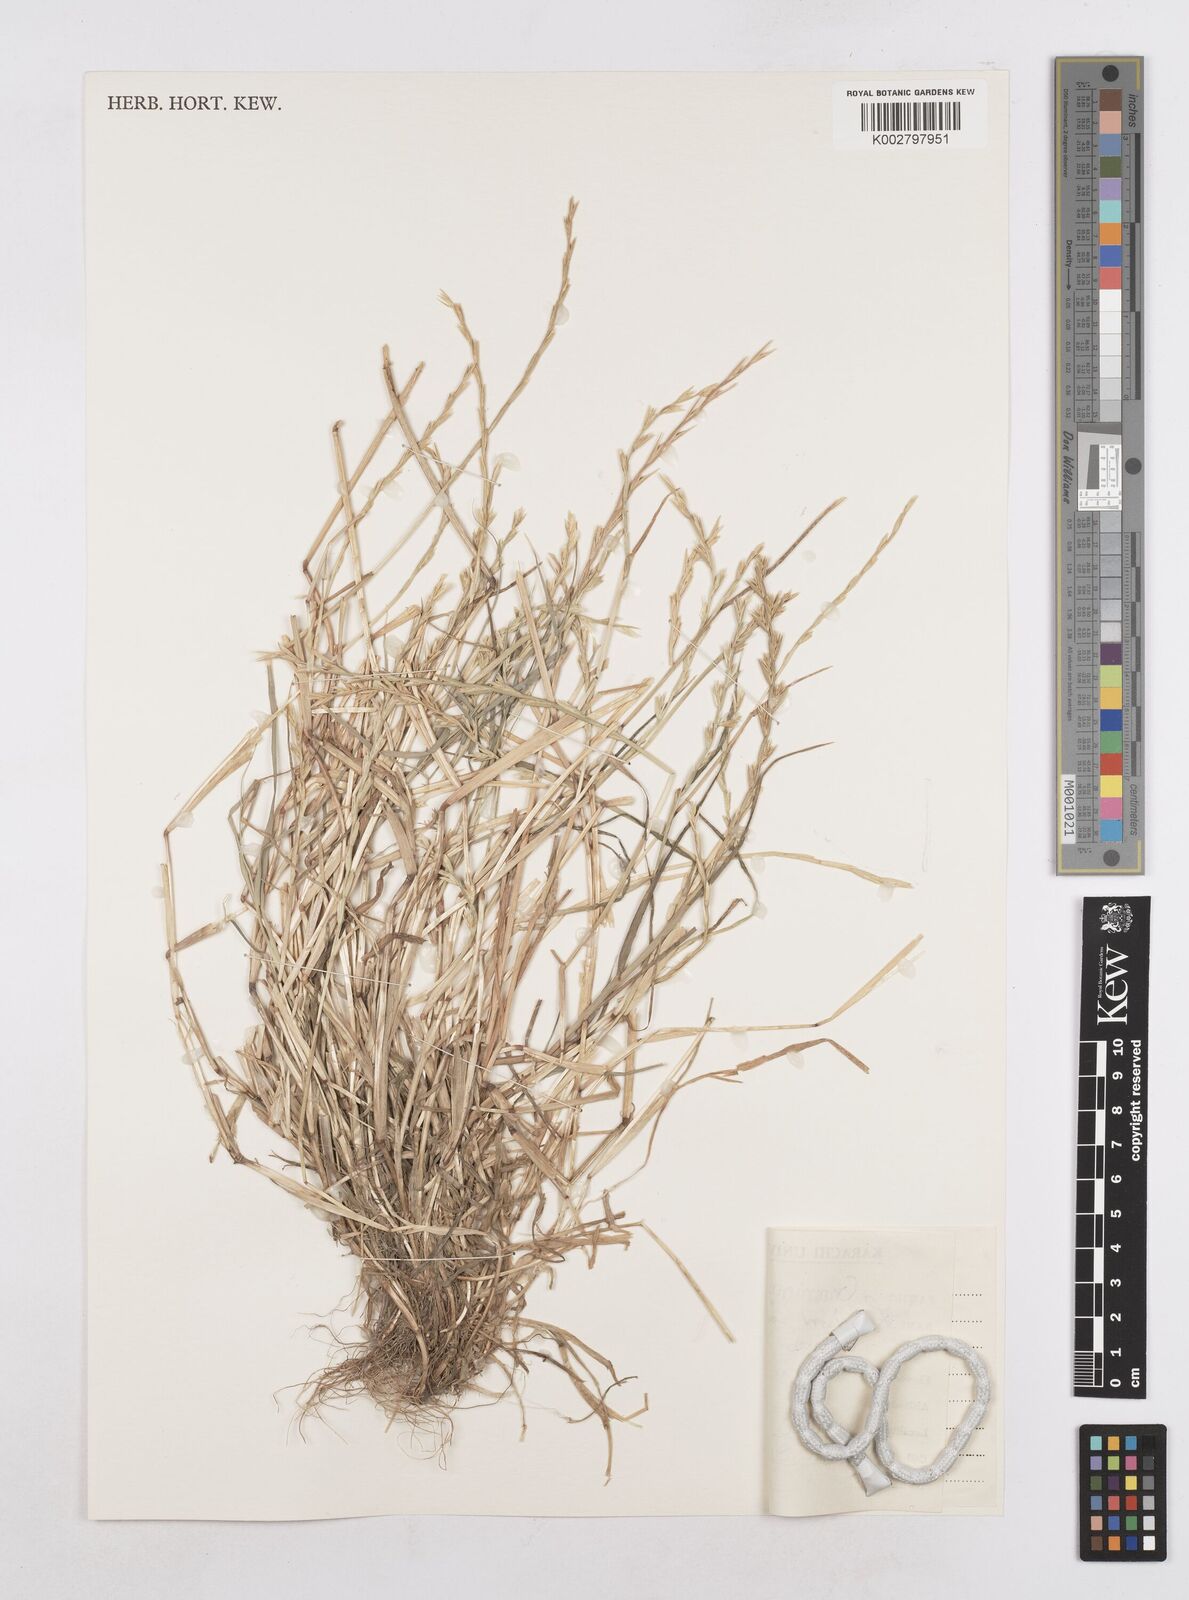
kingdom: Plantae
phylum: Tracheophyta
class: Liliopsida
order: Poales
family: Poaceae
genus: Lolium
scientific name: Lolium rigidum
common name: Wimmera ryegrass
